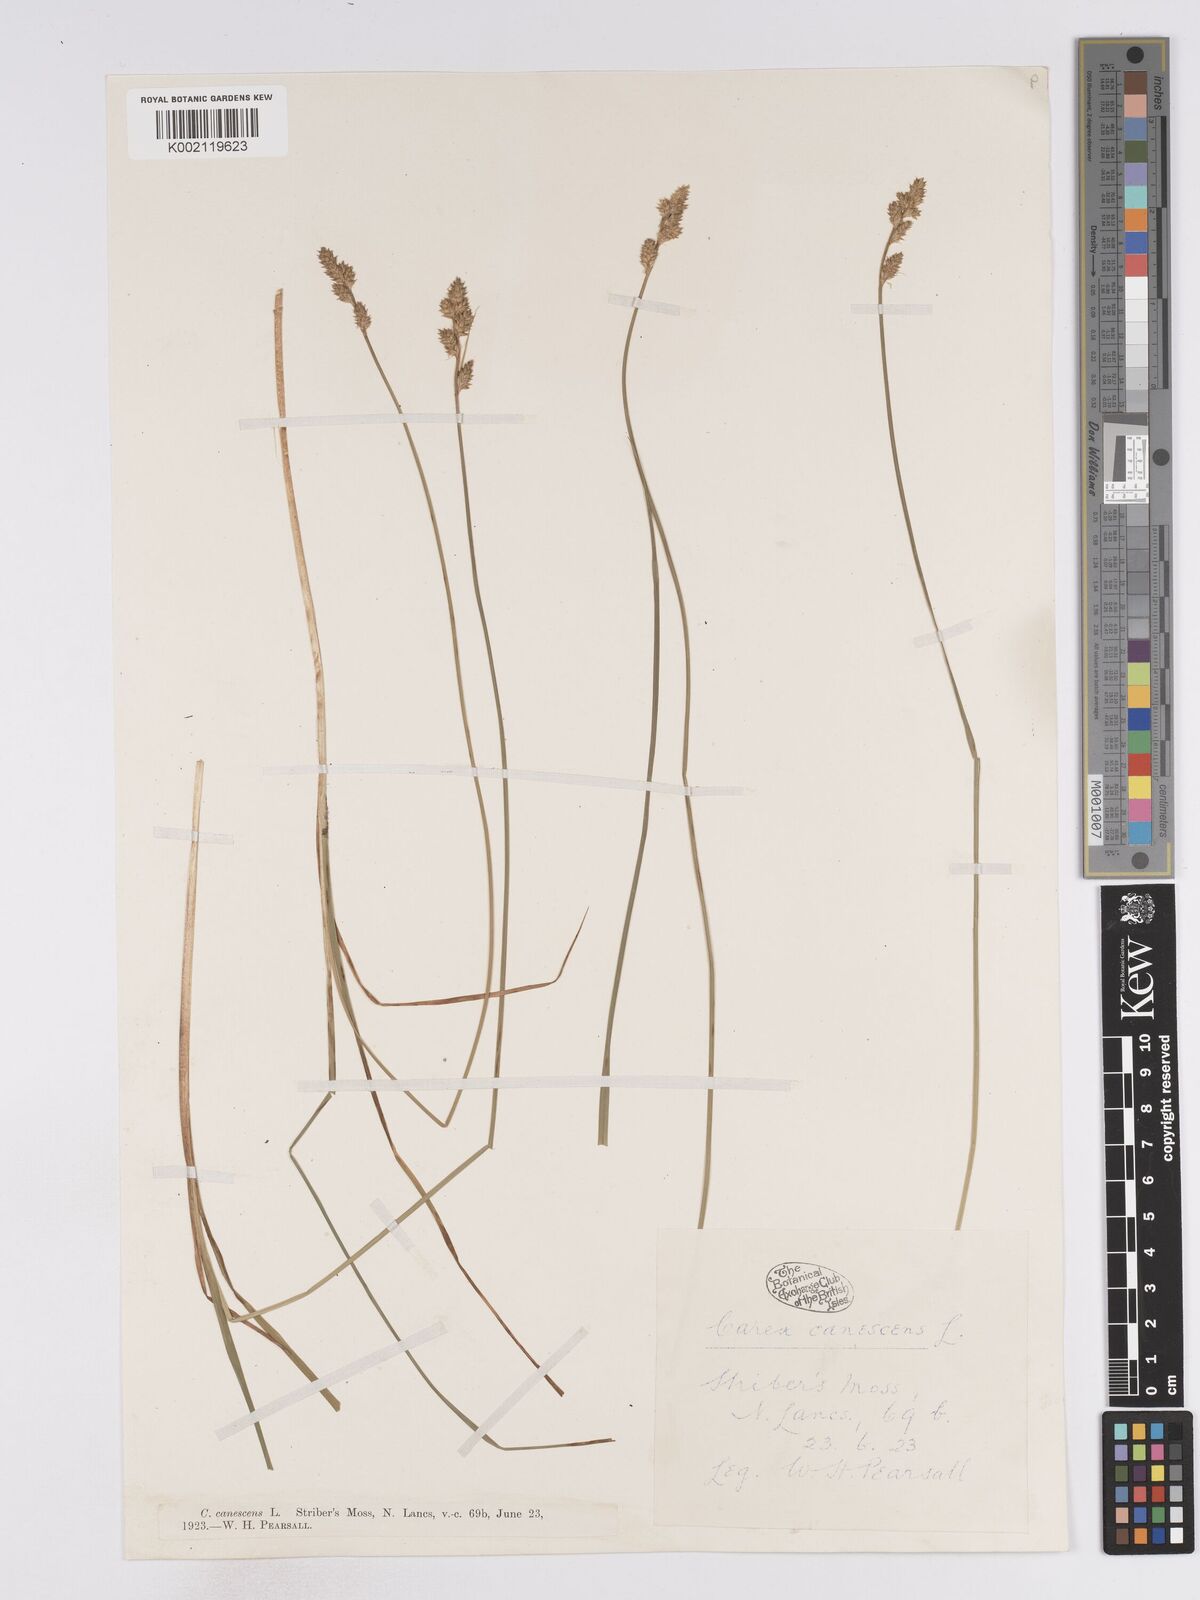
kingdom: Plantae
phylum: Tracheophyta
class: Liliopsida
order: Poales
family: Cyperaceae
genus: Carex
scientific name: Carex curta
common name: White sedge
